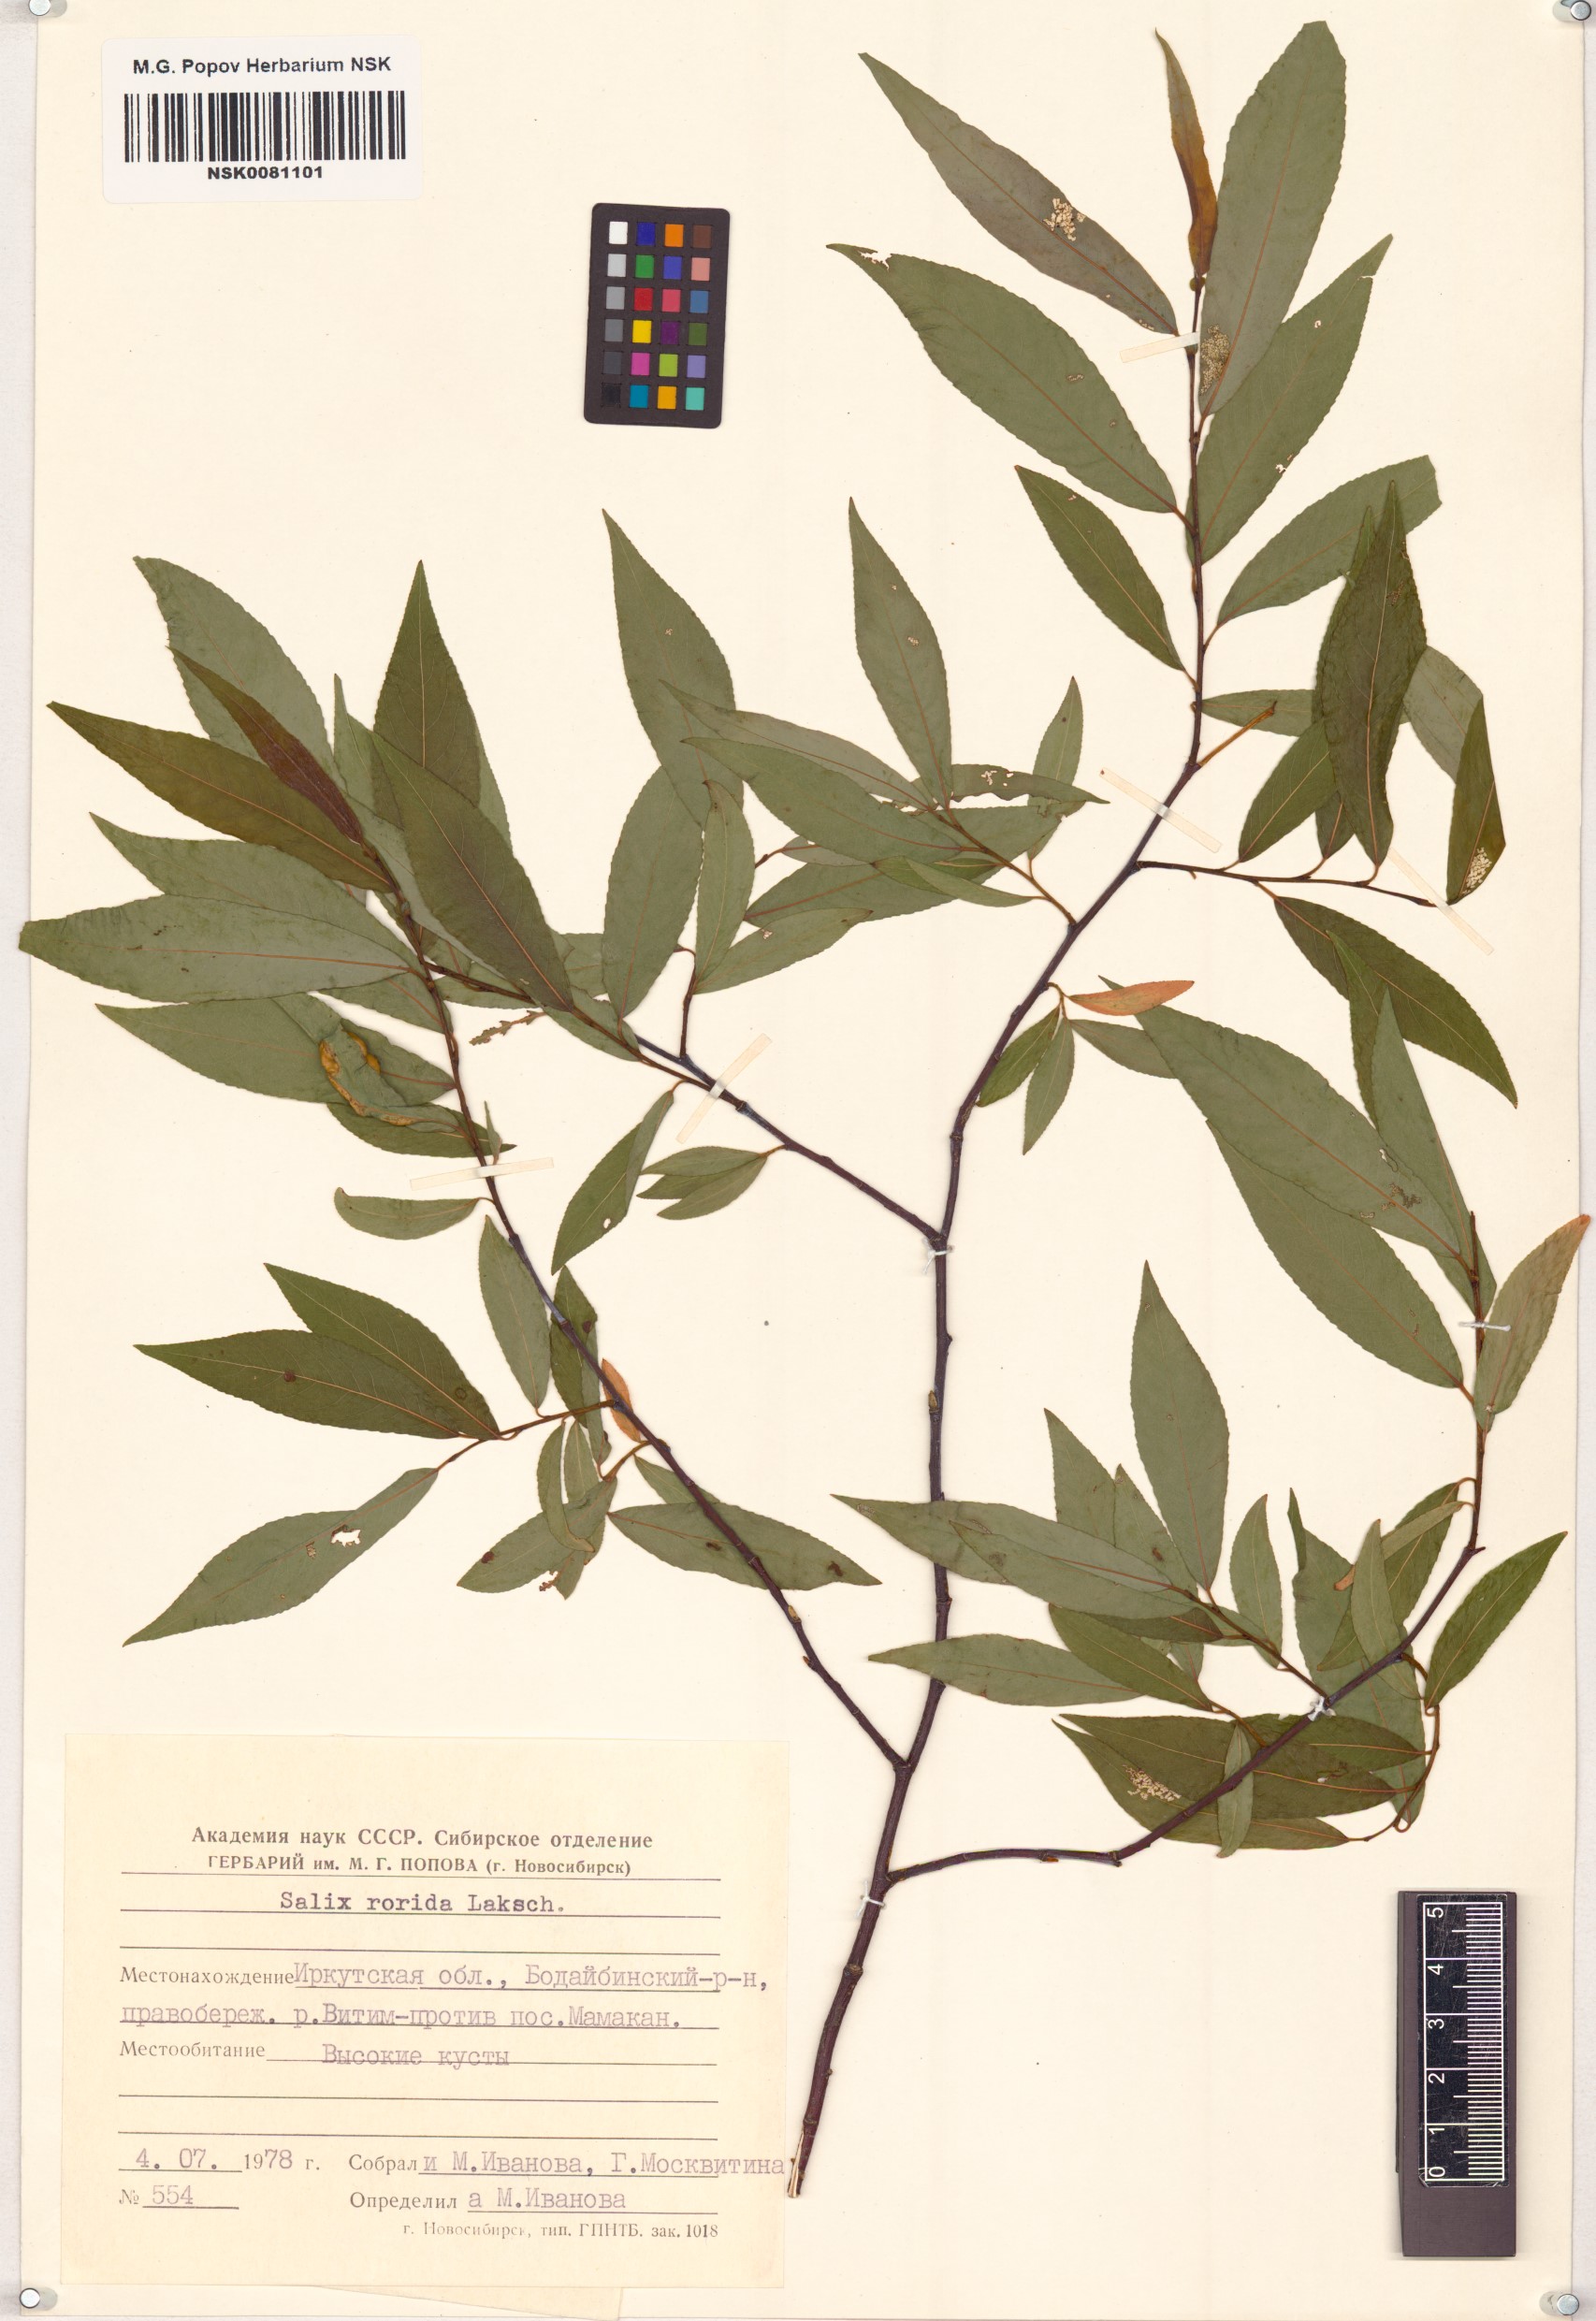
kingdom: Plantae
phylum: Tracheophyta
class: Magnoliopsida
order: Malpighiales
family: Salicaceae
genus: Salix
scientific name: Salix rorida
